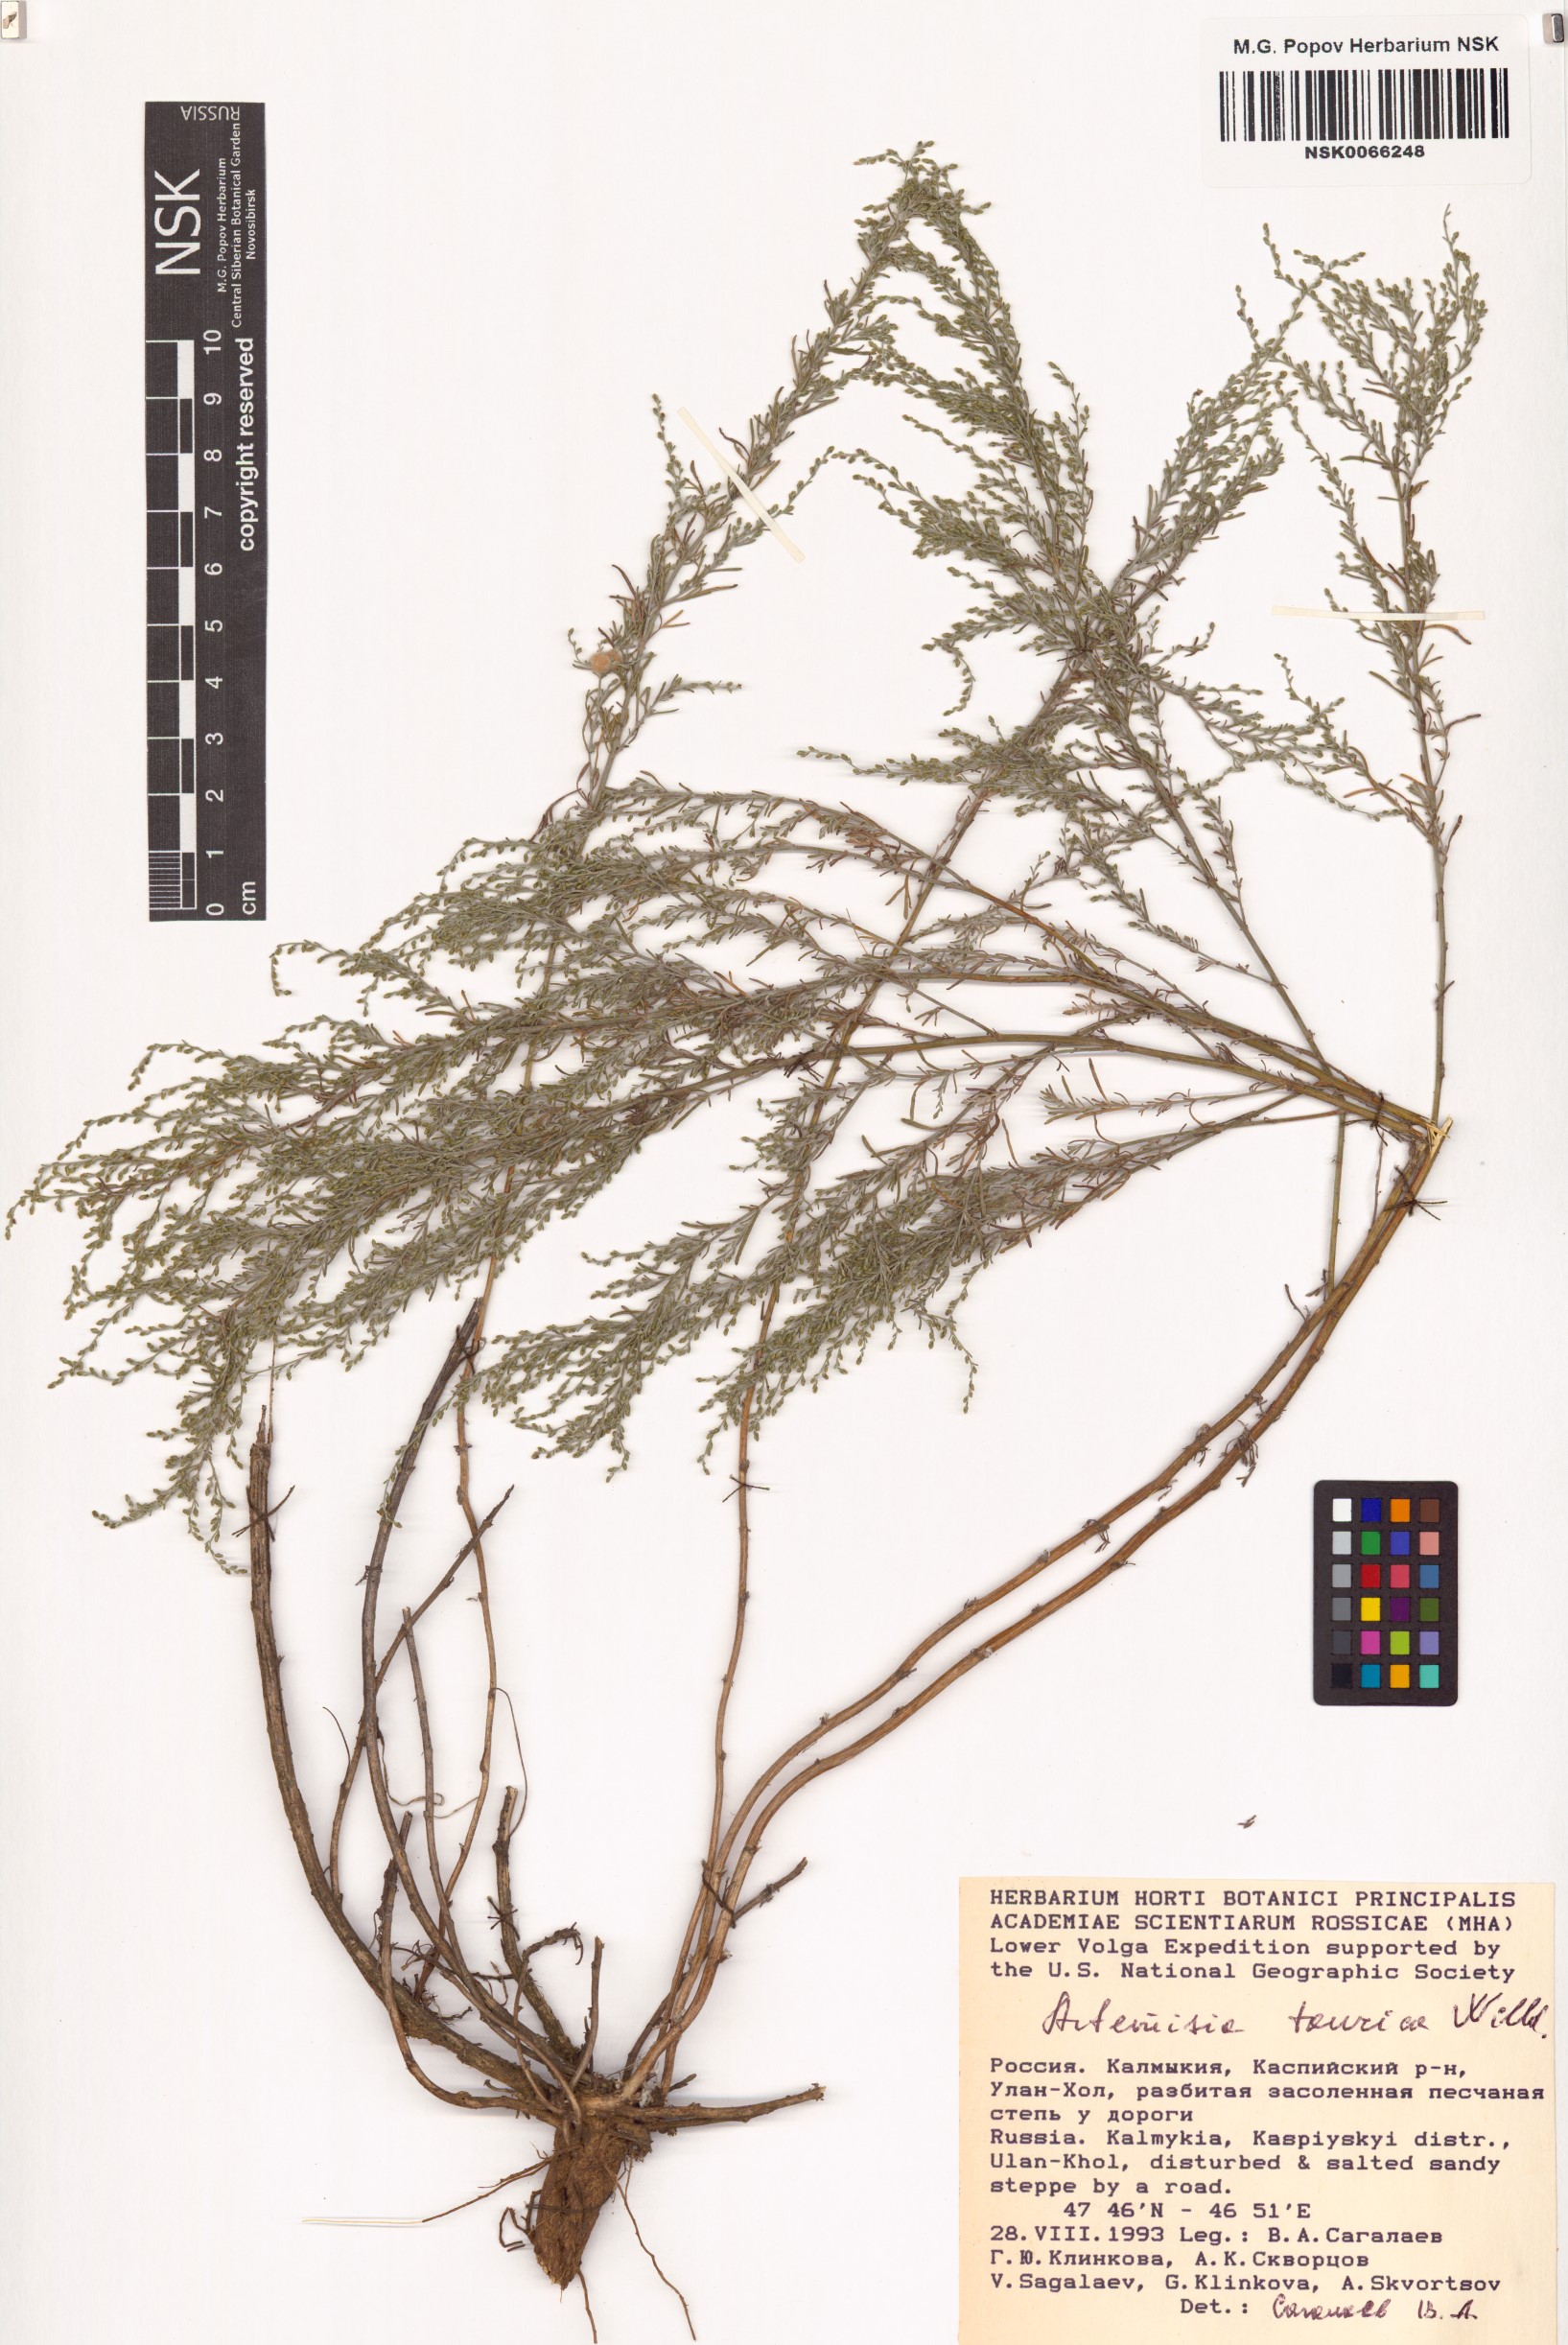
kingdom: Plantae
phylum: Tracheophyta
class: Magnoliopsida
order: Asterales
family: Asteraceae
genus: Artemisia
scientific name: Artemisia taurica
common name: Tauric wormwood
